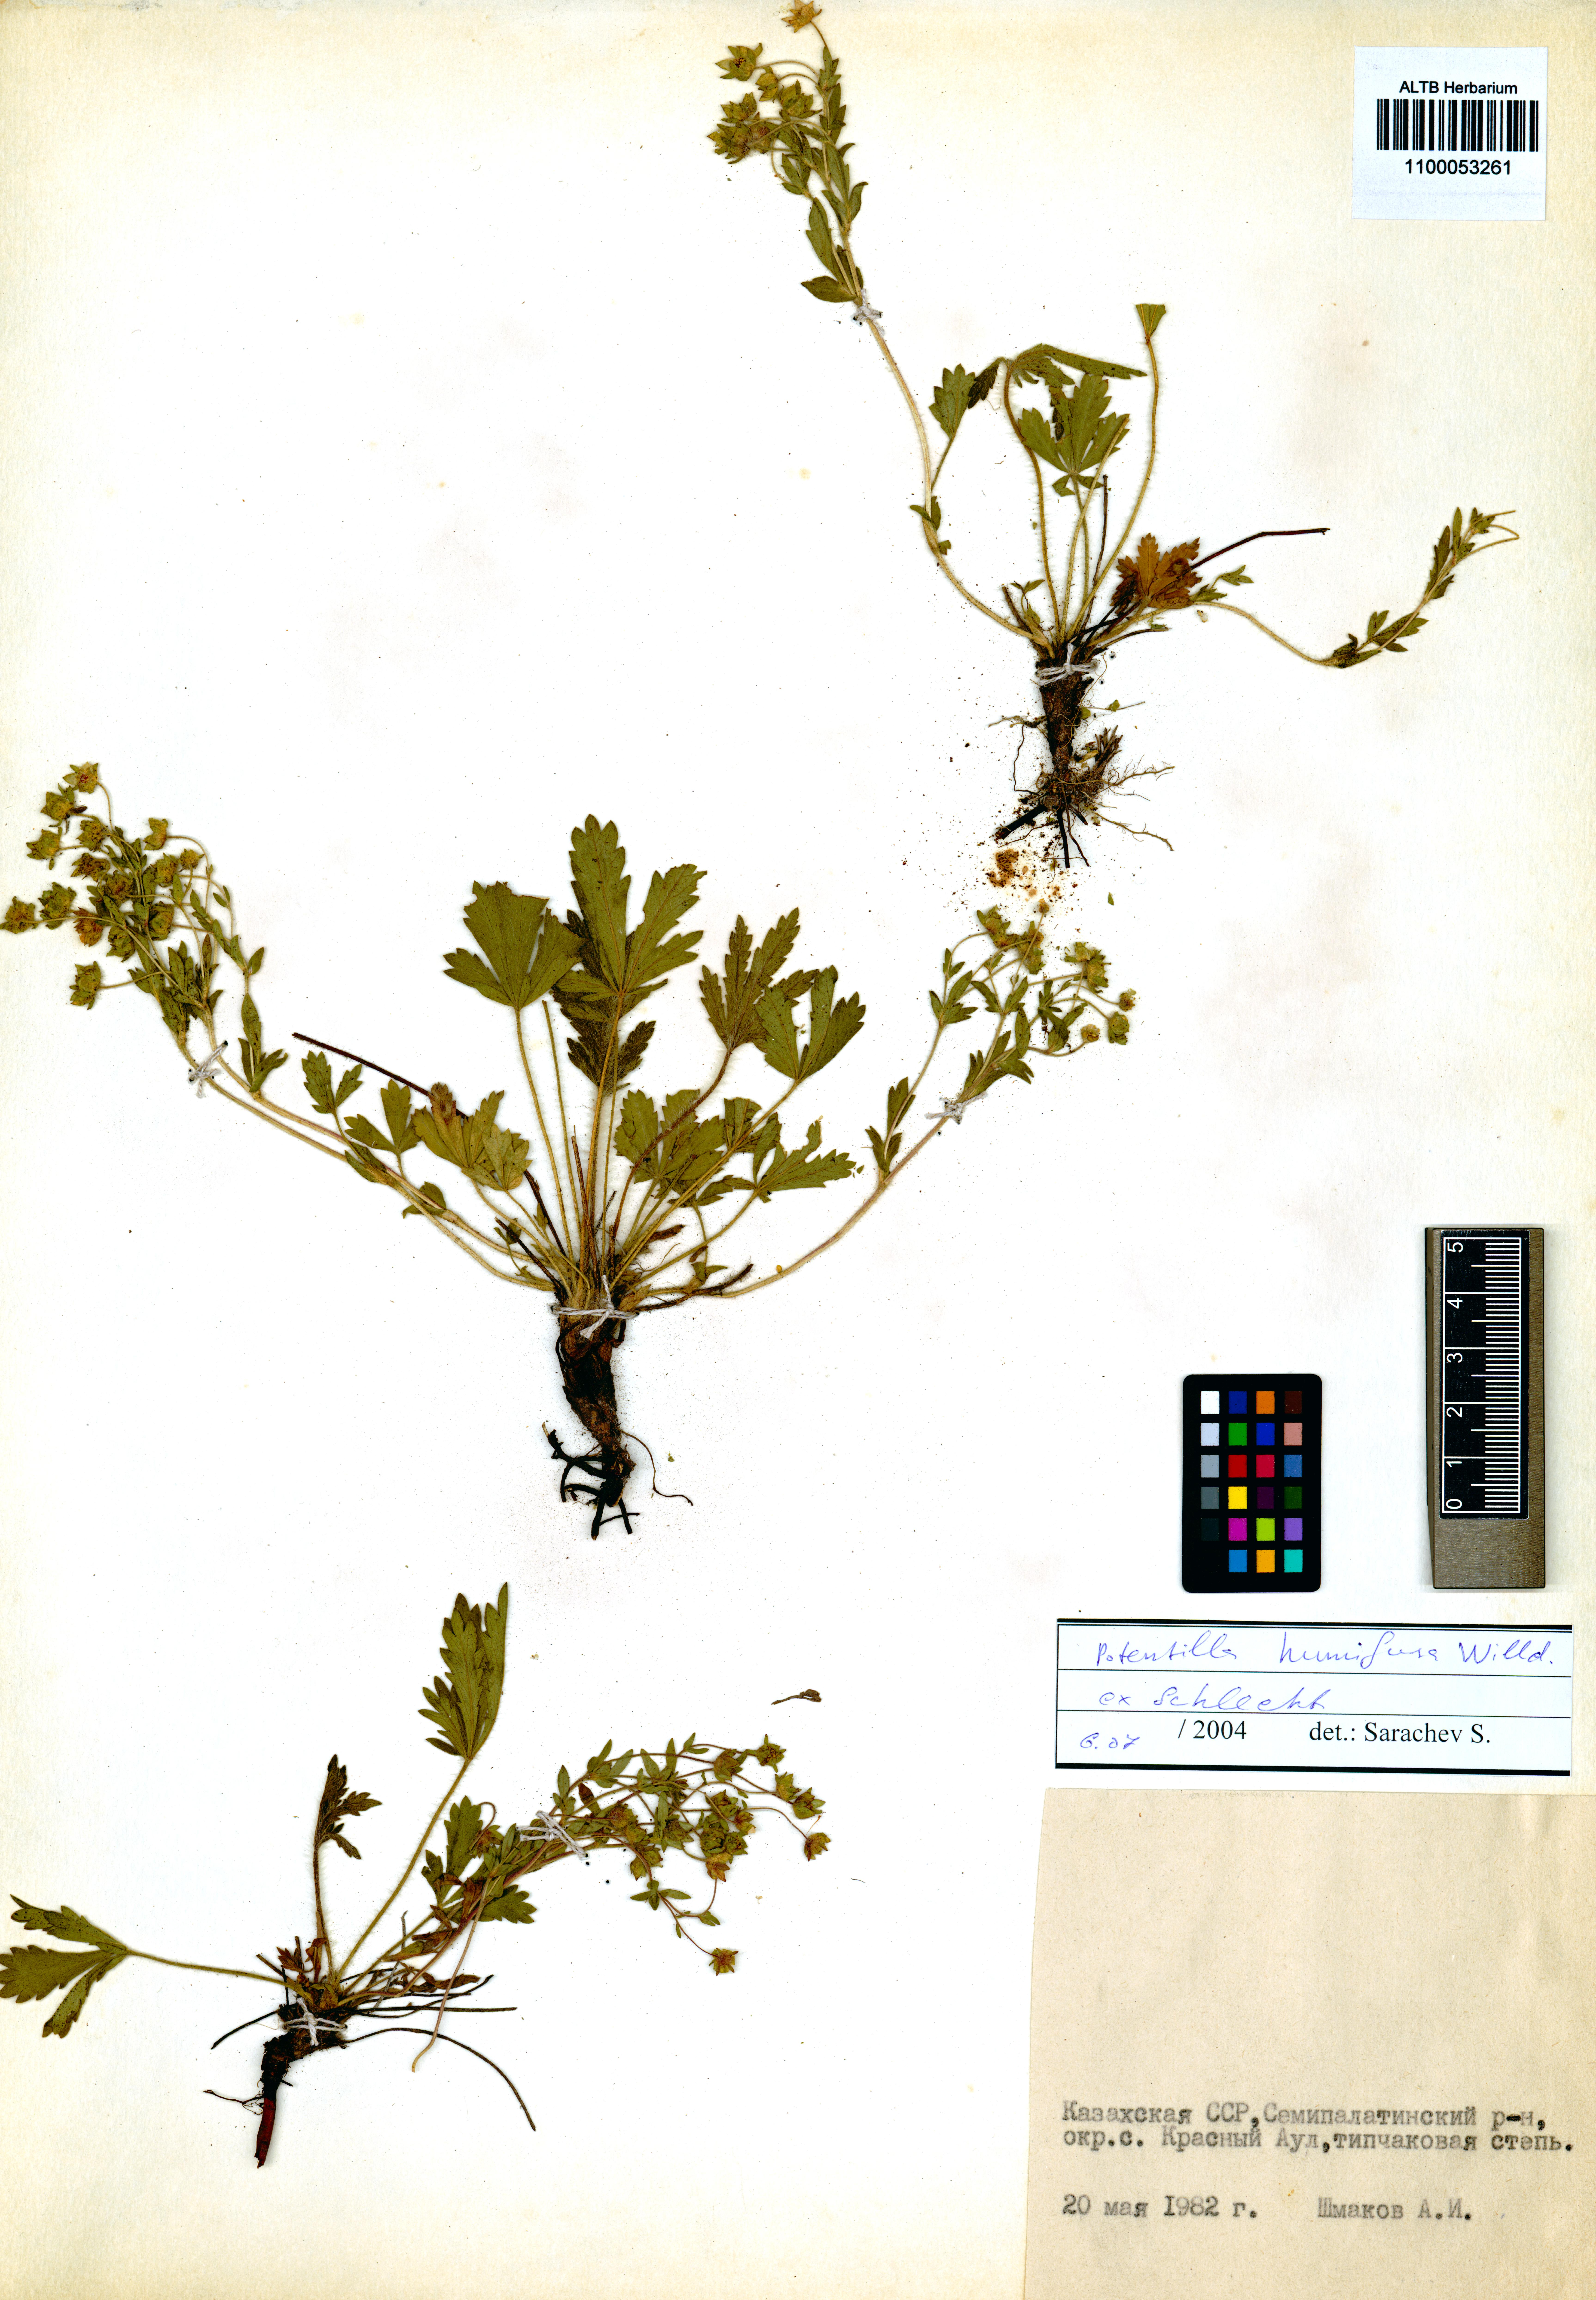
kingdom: Plantae
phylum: Tracheophyta
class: Magnoliopsida
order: Rosales
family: Rosaceae
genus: Potentilla
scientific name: Potentilla humifusa
